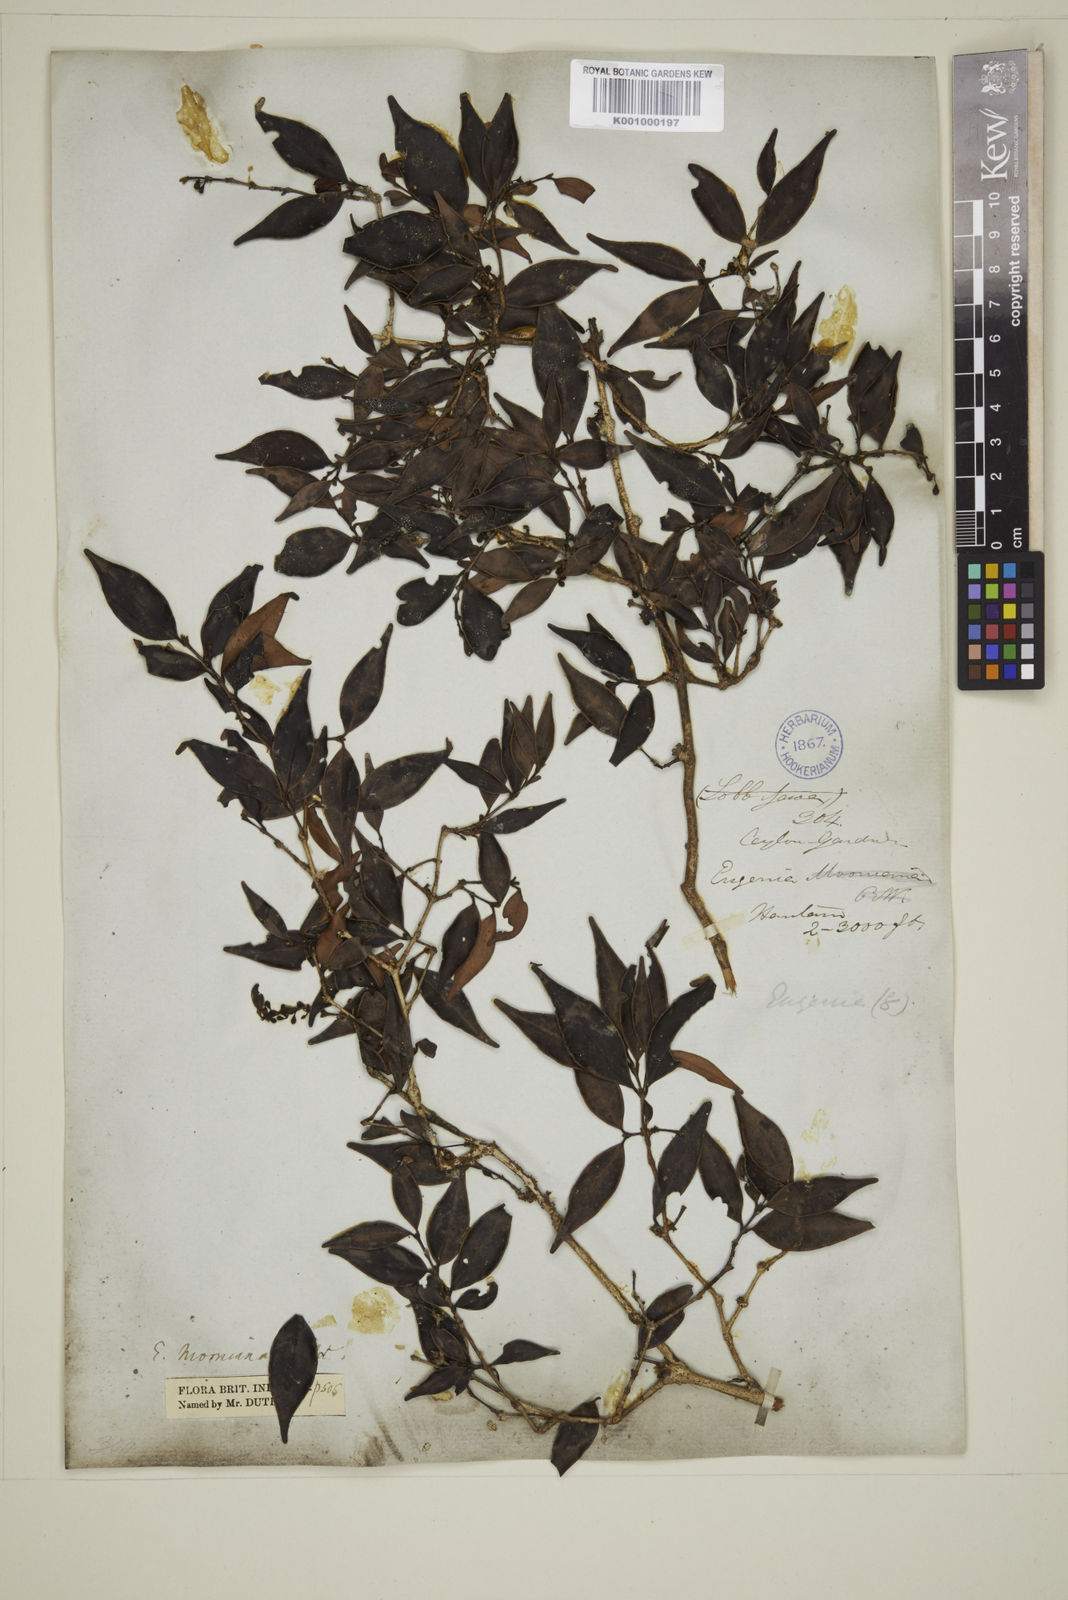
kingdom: Plantae
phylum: Tracheophyta
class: Magnoliopsida
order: Myrtales
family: Myrtaceae
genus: Eugenia
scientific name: Eugenia thwaitesii
